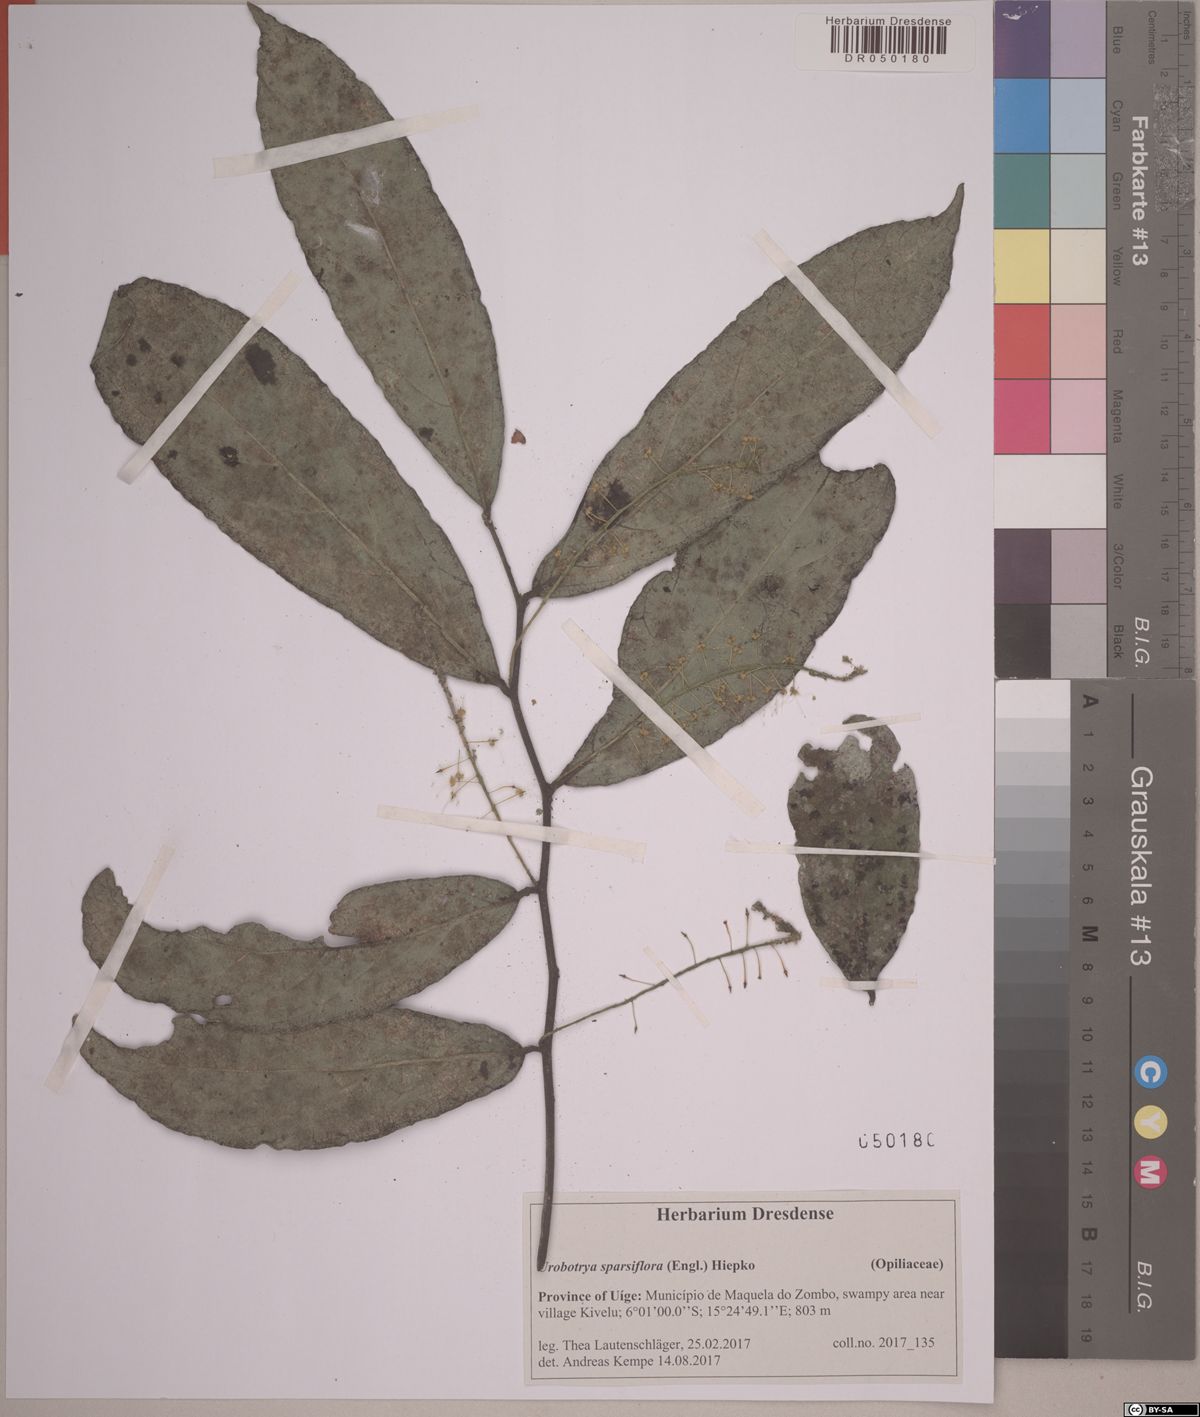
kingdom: Plantae
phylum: Tracheophyta
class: Magnoliopsida
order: Santalales
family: Opiliaceae
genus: Urobotrya
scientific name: Urobotrya sparsiflora
